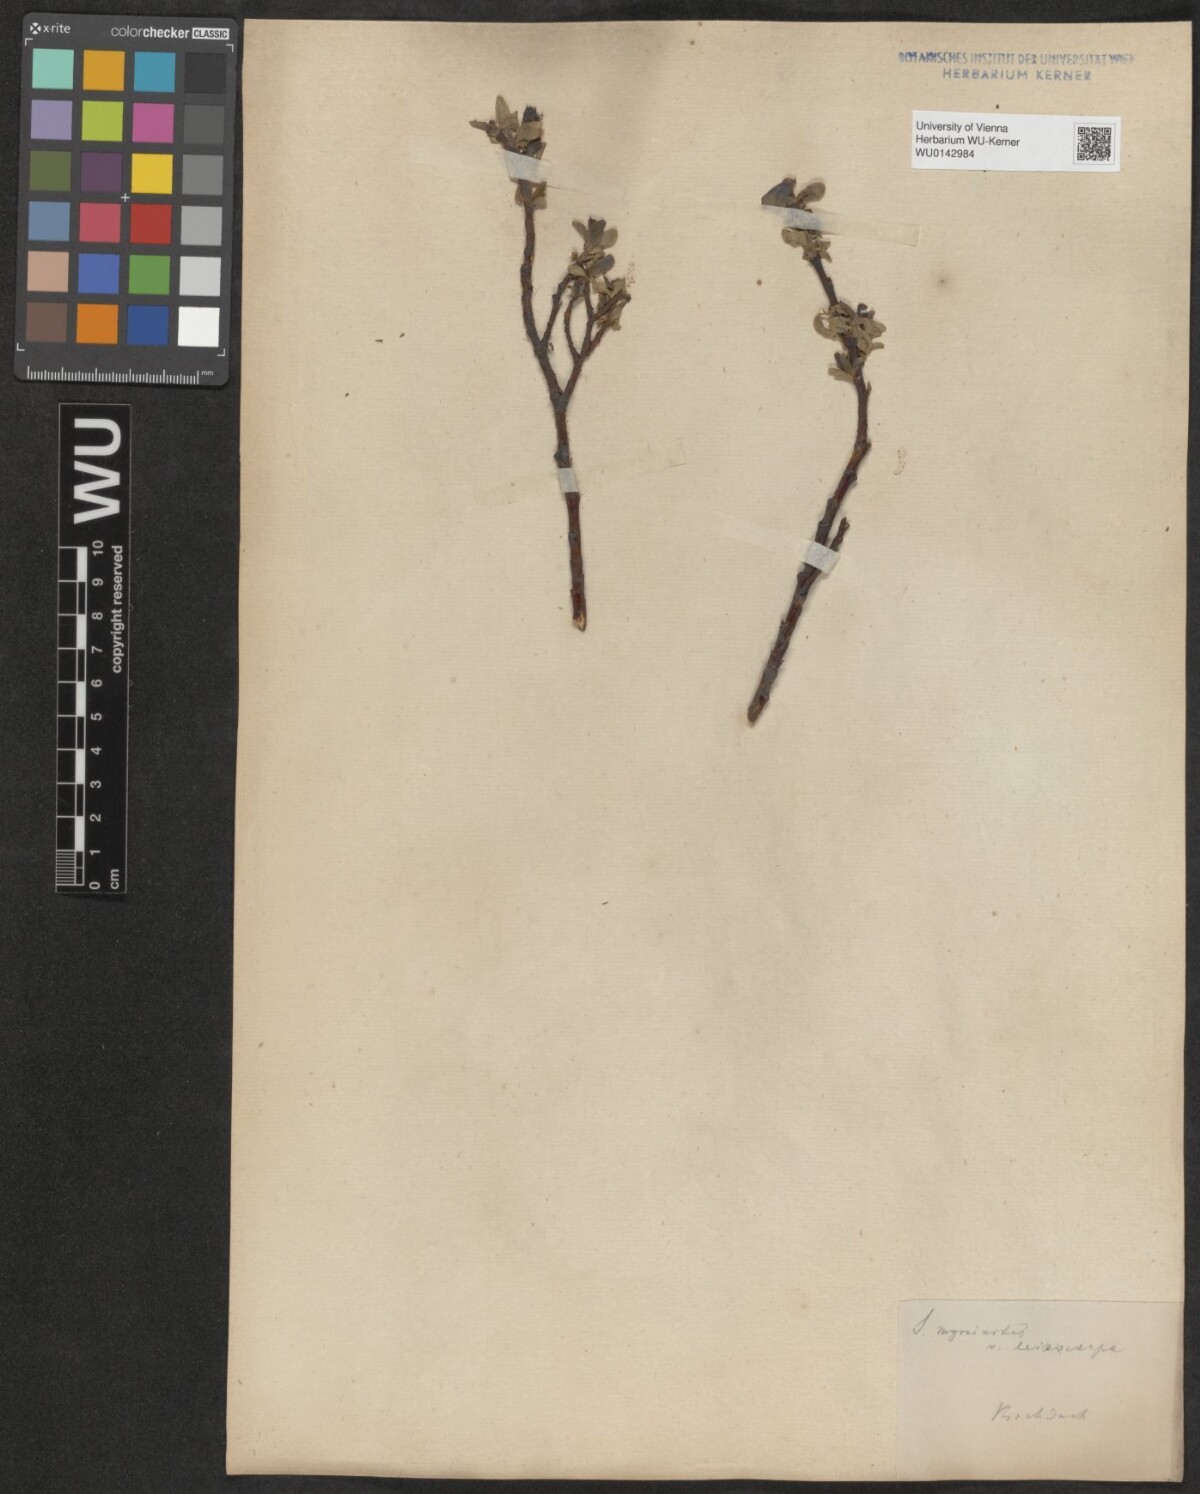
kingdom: Plantae
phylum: Tracheophyta
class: Magnoliopsida
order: Malpighiales
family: Salicaceae
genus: Salix
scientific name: Salix myrsinites
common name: Myrtle willow
